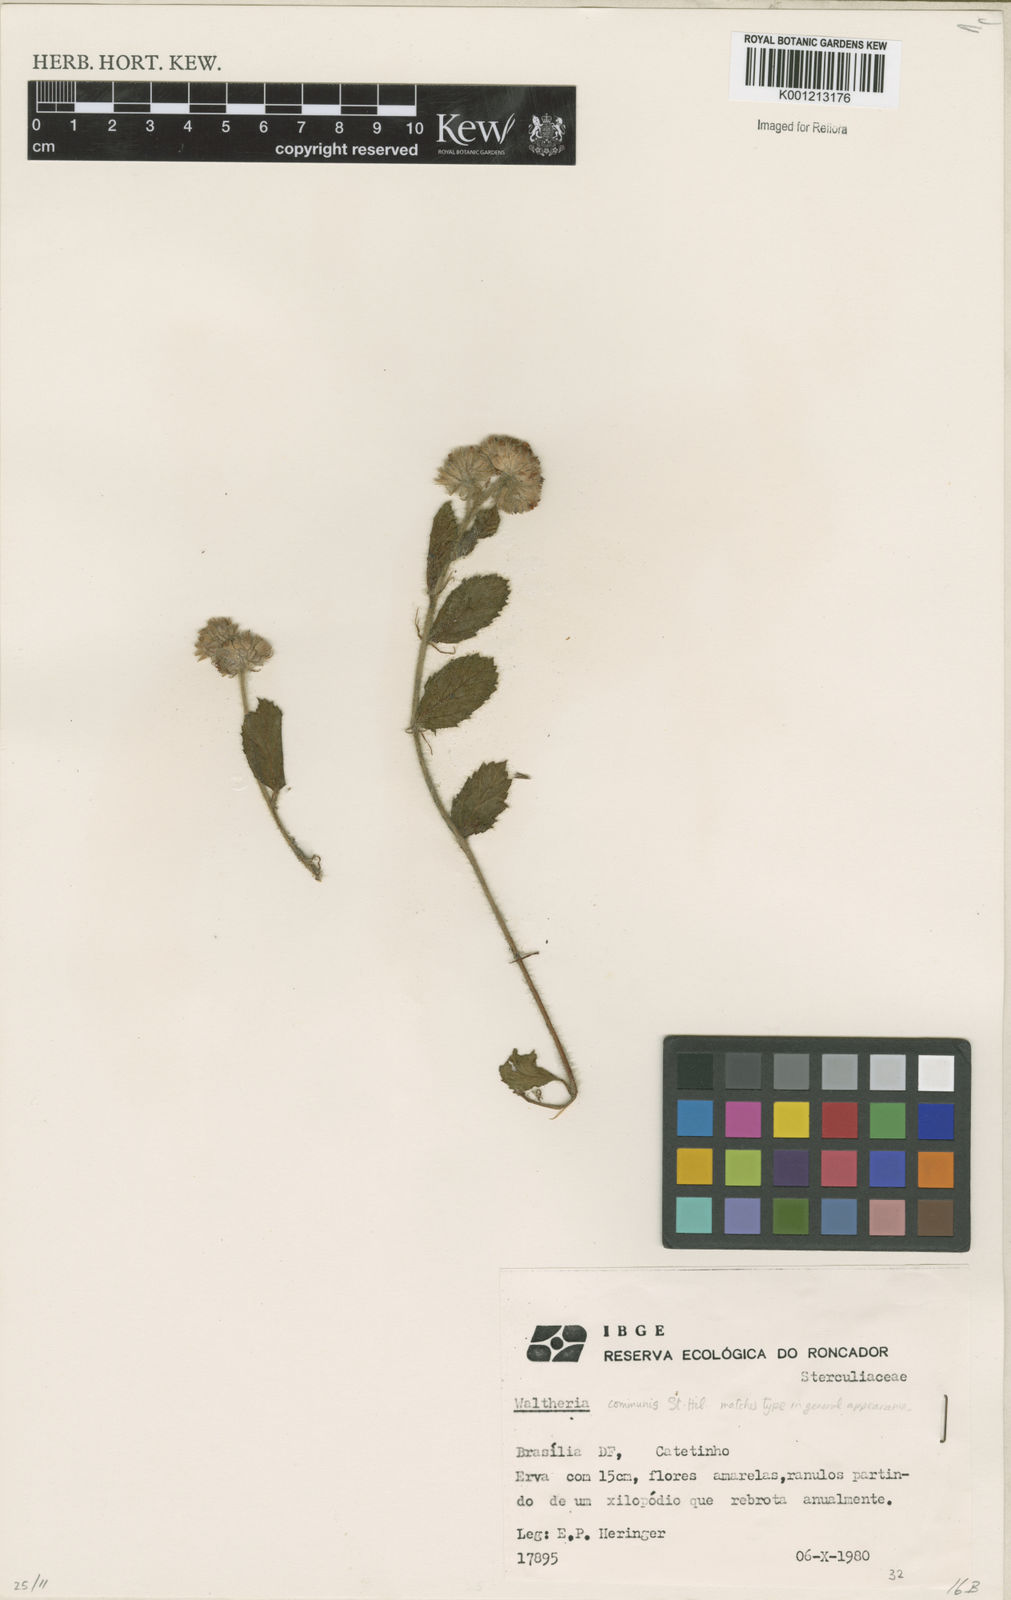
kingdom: Plantae
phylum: Tracheophyta
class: Magnoliopsida
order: Malvales
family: Malvaceae
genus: Waltheria
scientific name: Waltheria communis
